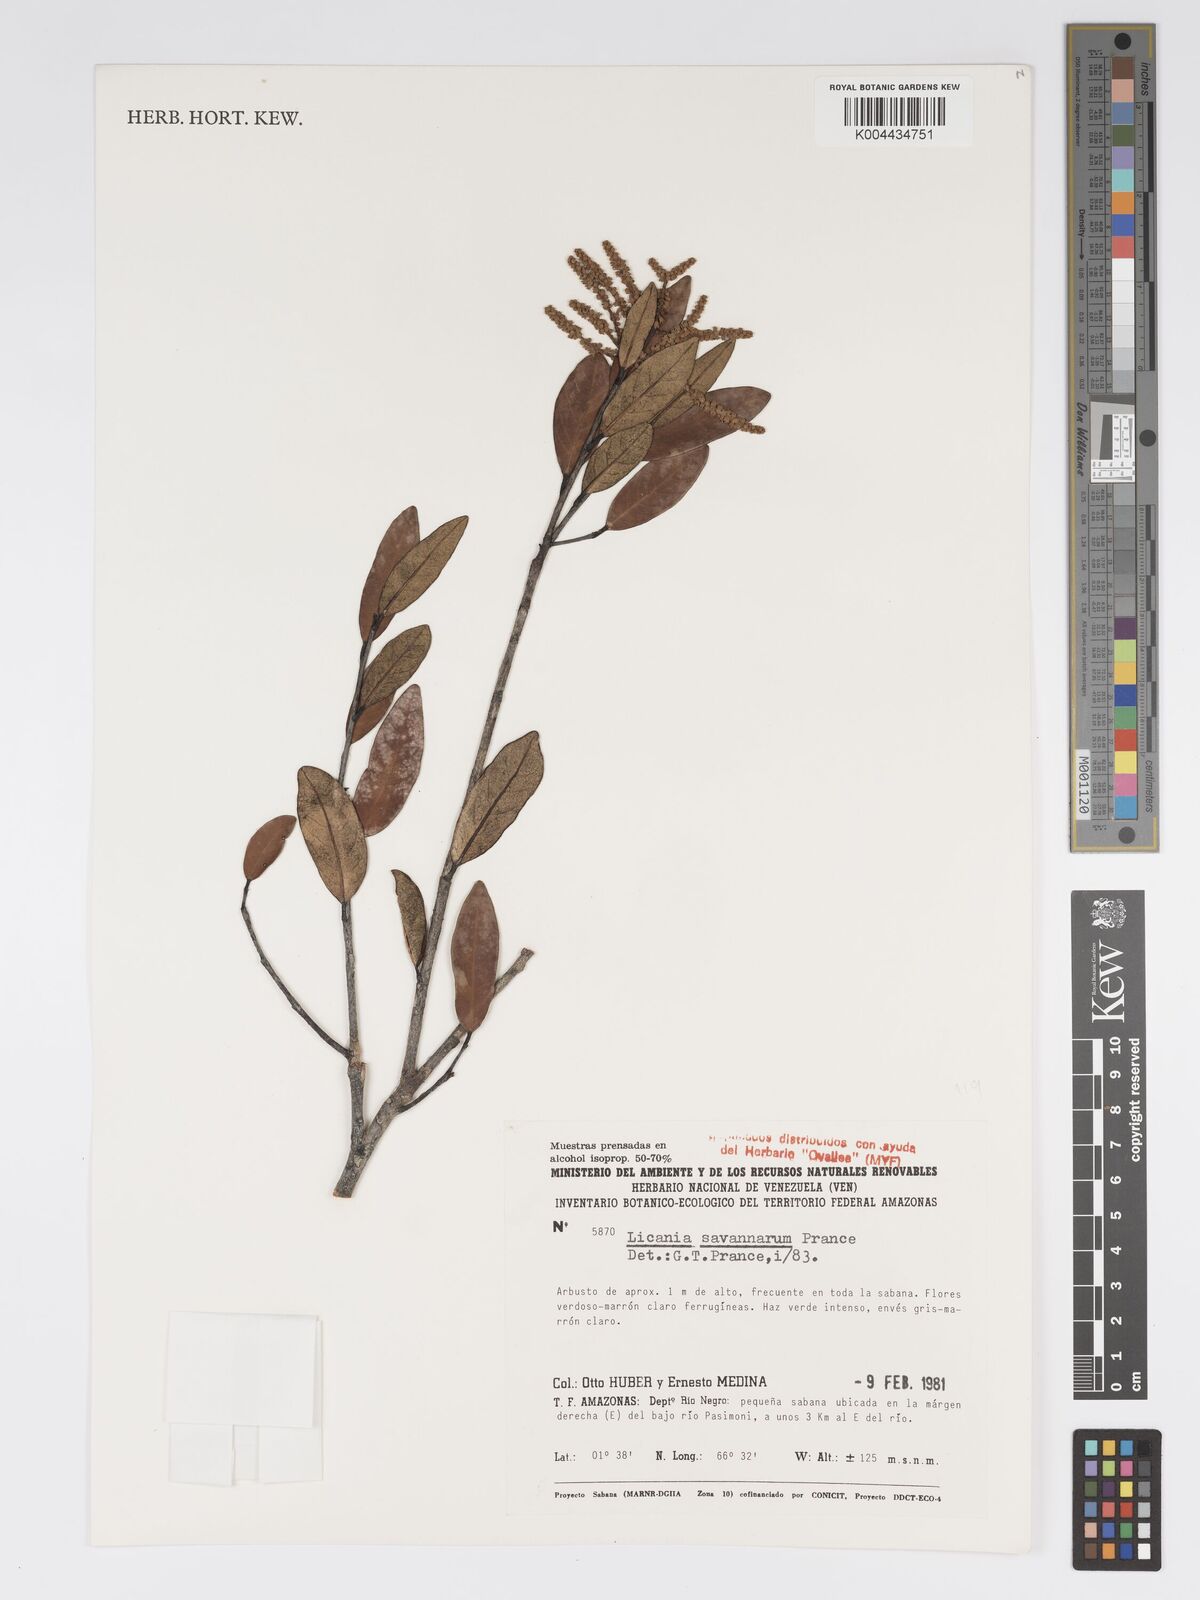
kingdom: Plantae
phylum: Tracheophyta
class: Magnoliopsida
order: Malpighiales
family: Chrysobalanaceae
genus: Licania
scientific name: Licania savannarum
